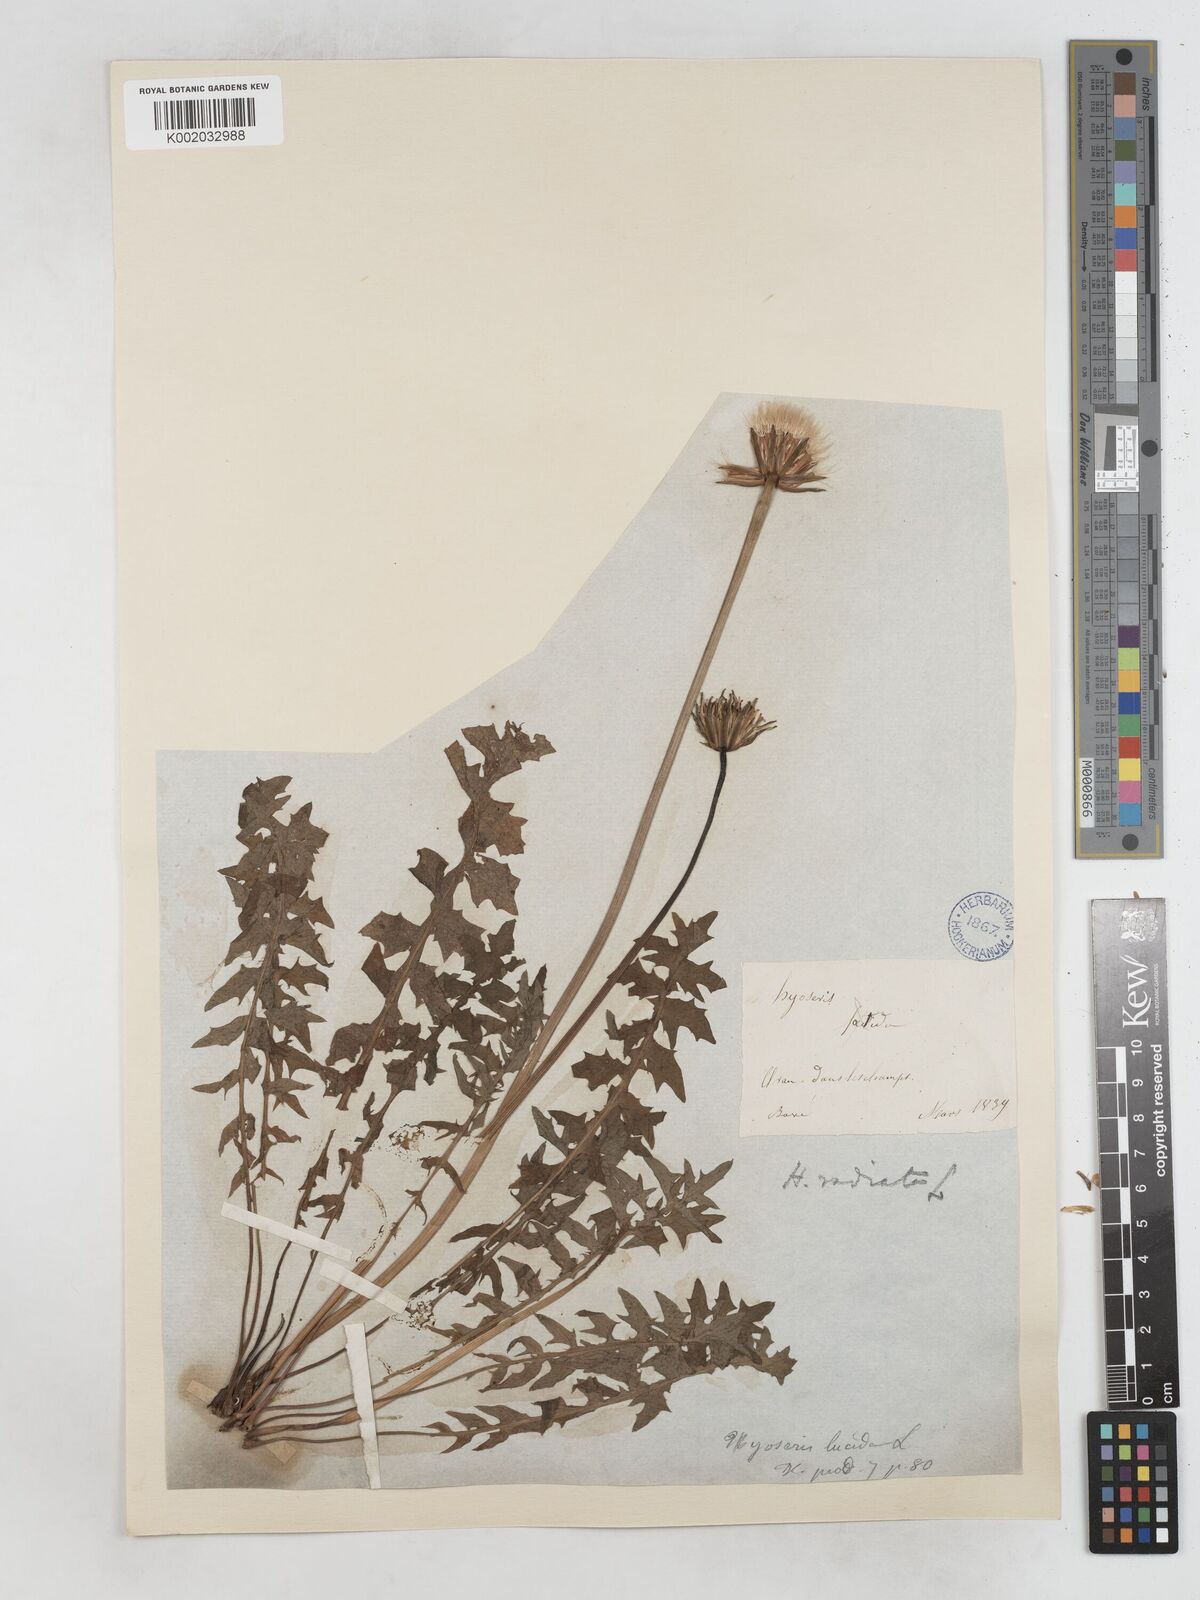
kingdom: Plantae
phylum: Tracheophyta
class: Magnoliopsida
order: Asterales
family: Asteraceae
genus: Hyoseris
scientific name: Hyoseris radiata
